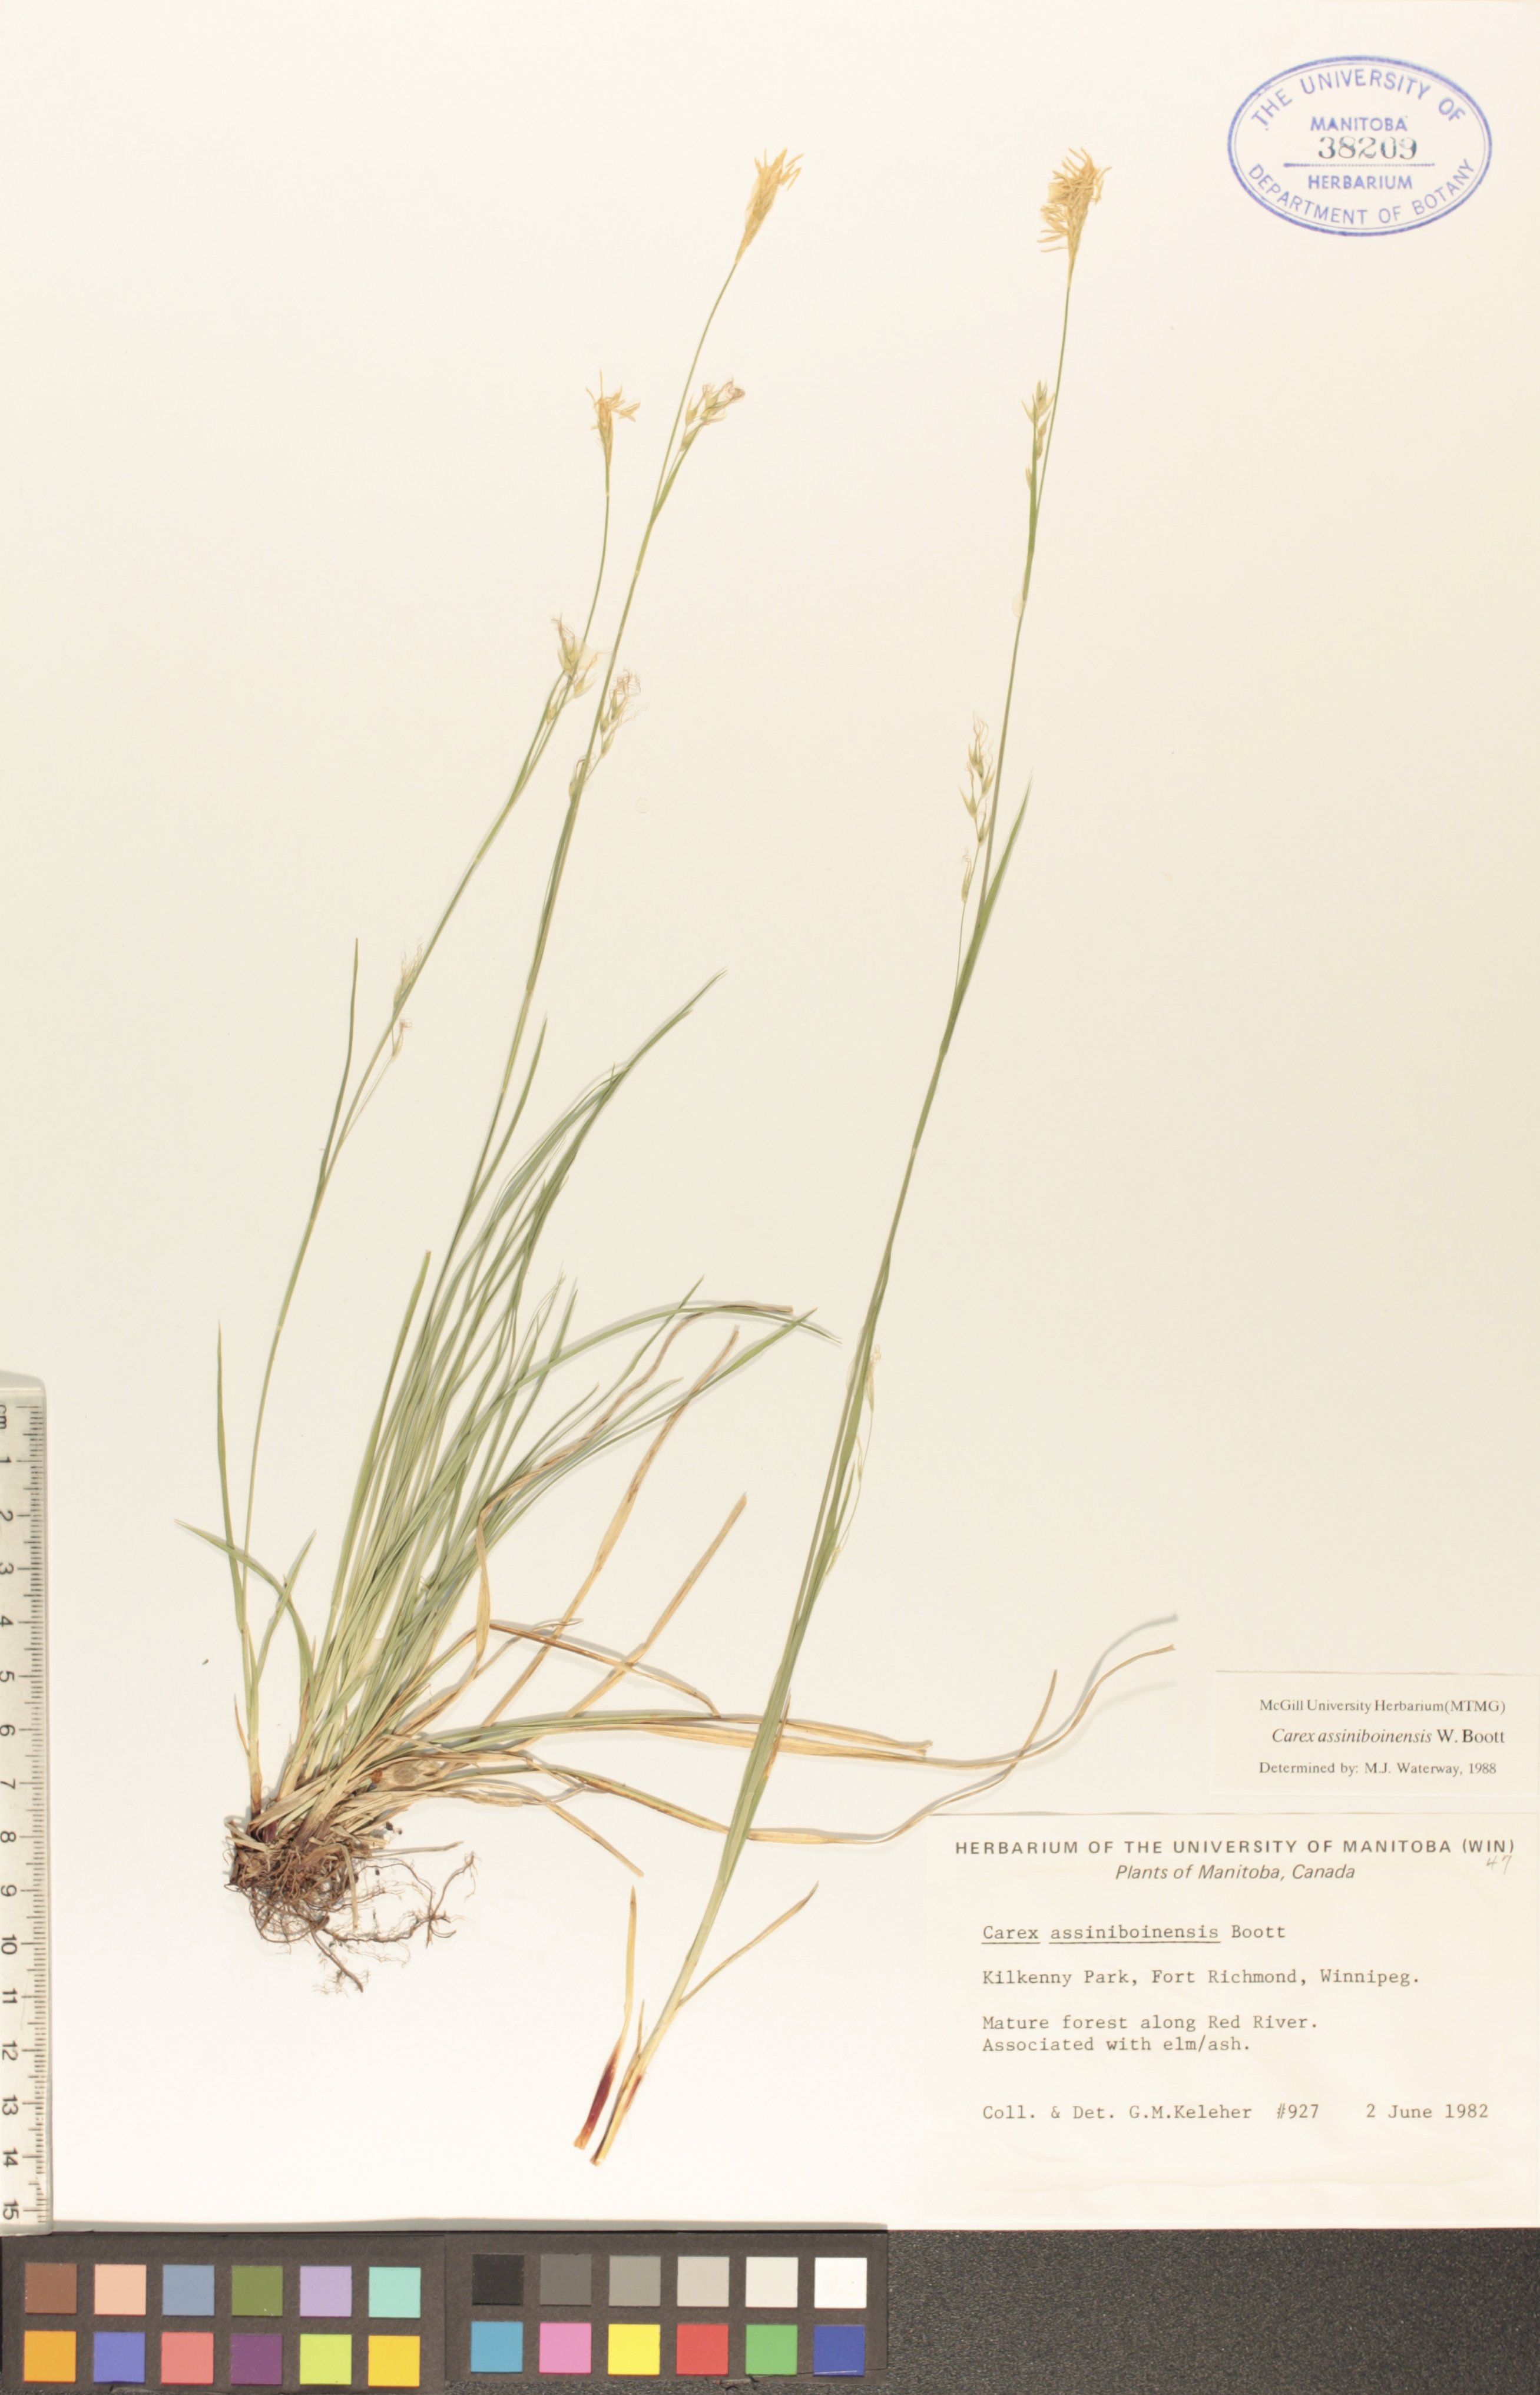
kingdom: Plantae
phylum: Tracheophyta
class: Liliopsida
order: Poales
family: Cyperaceae
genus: Carex
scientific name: Carex assiniboinensis
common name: Assiniboia sedge
